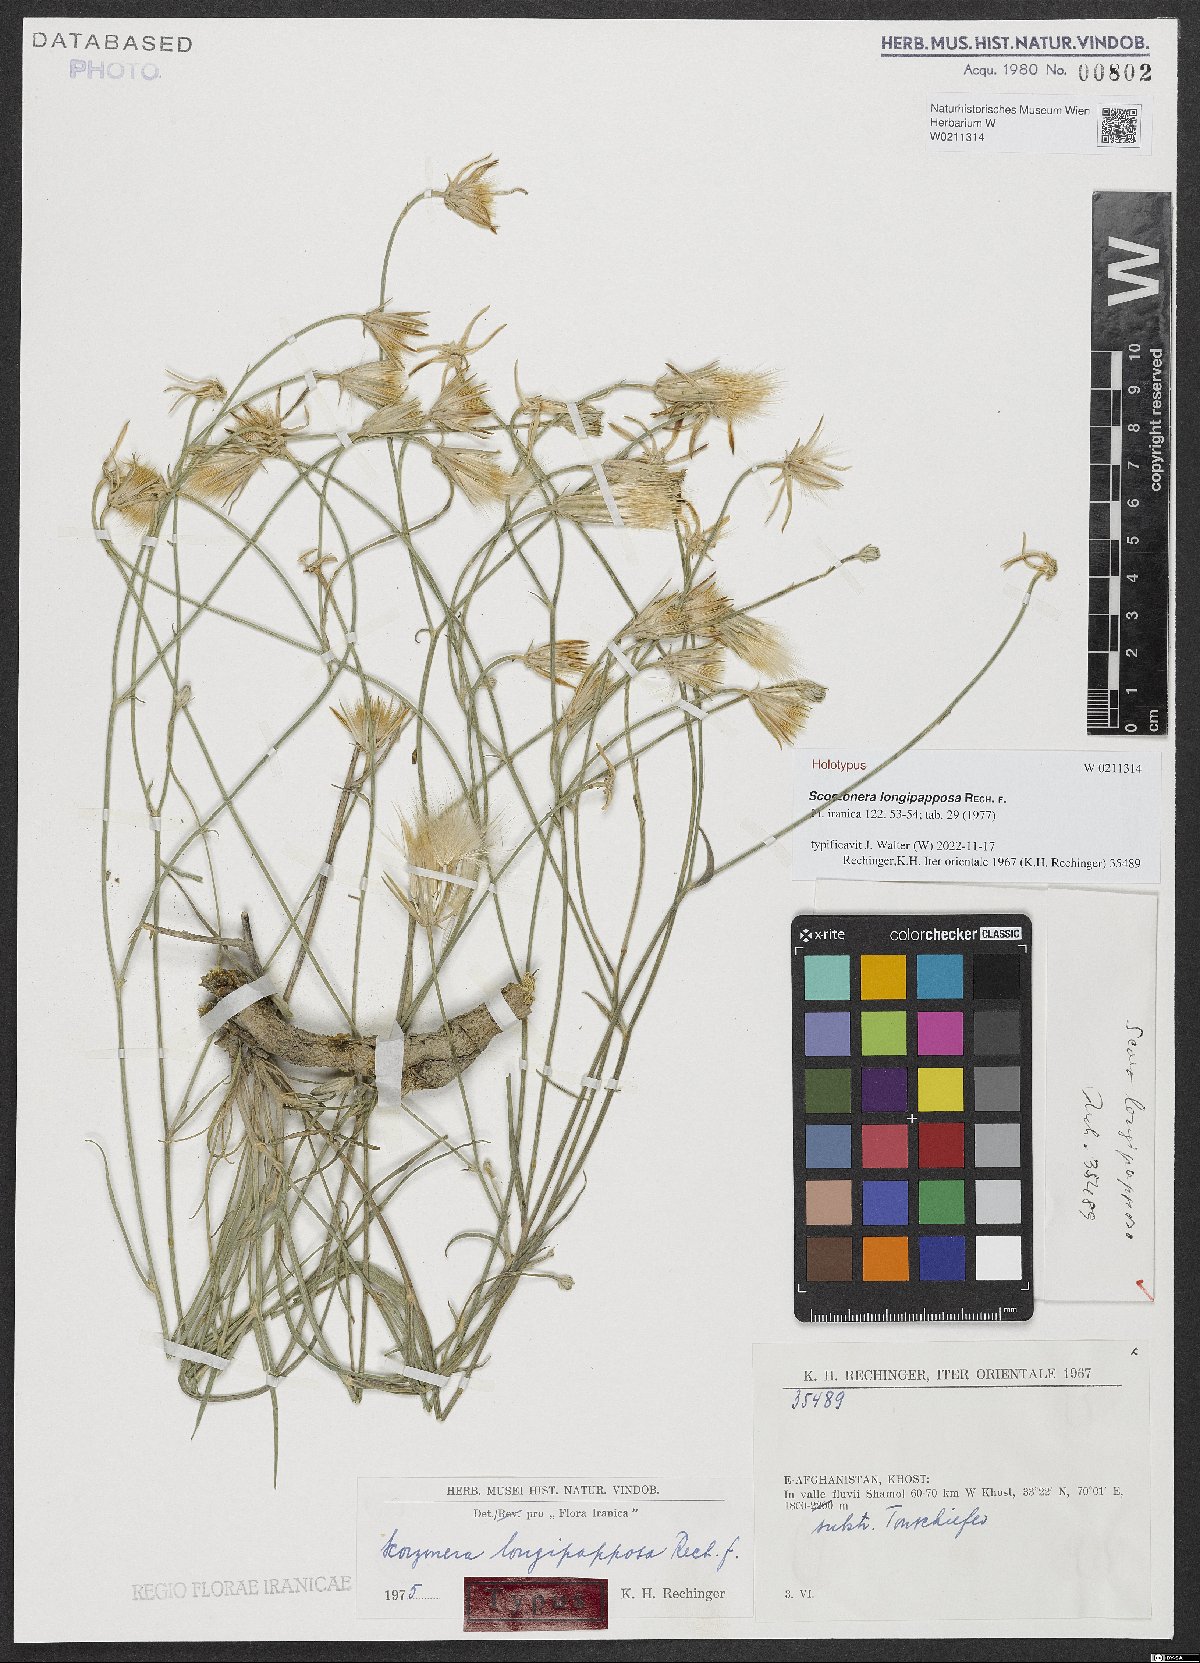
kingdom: Plantae
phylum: Tracheophyta
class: Magnoliopsida
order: Asterales
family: Asteraceae
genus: Ramaliella
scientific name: Ramaliella longipapposa
